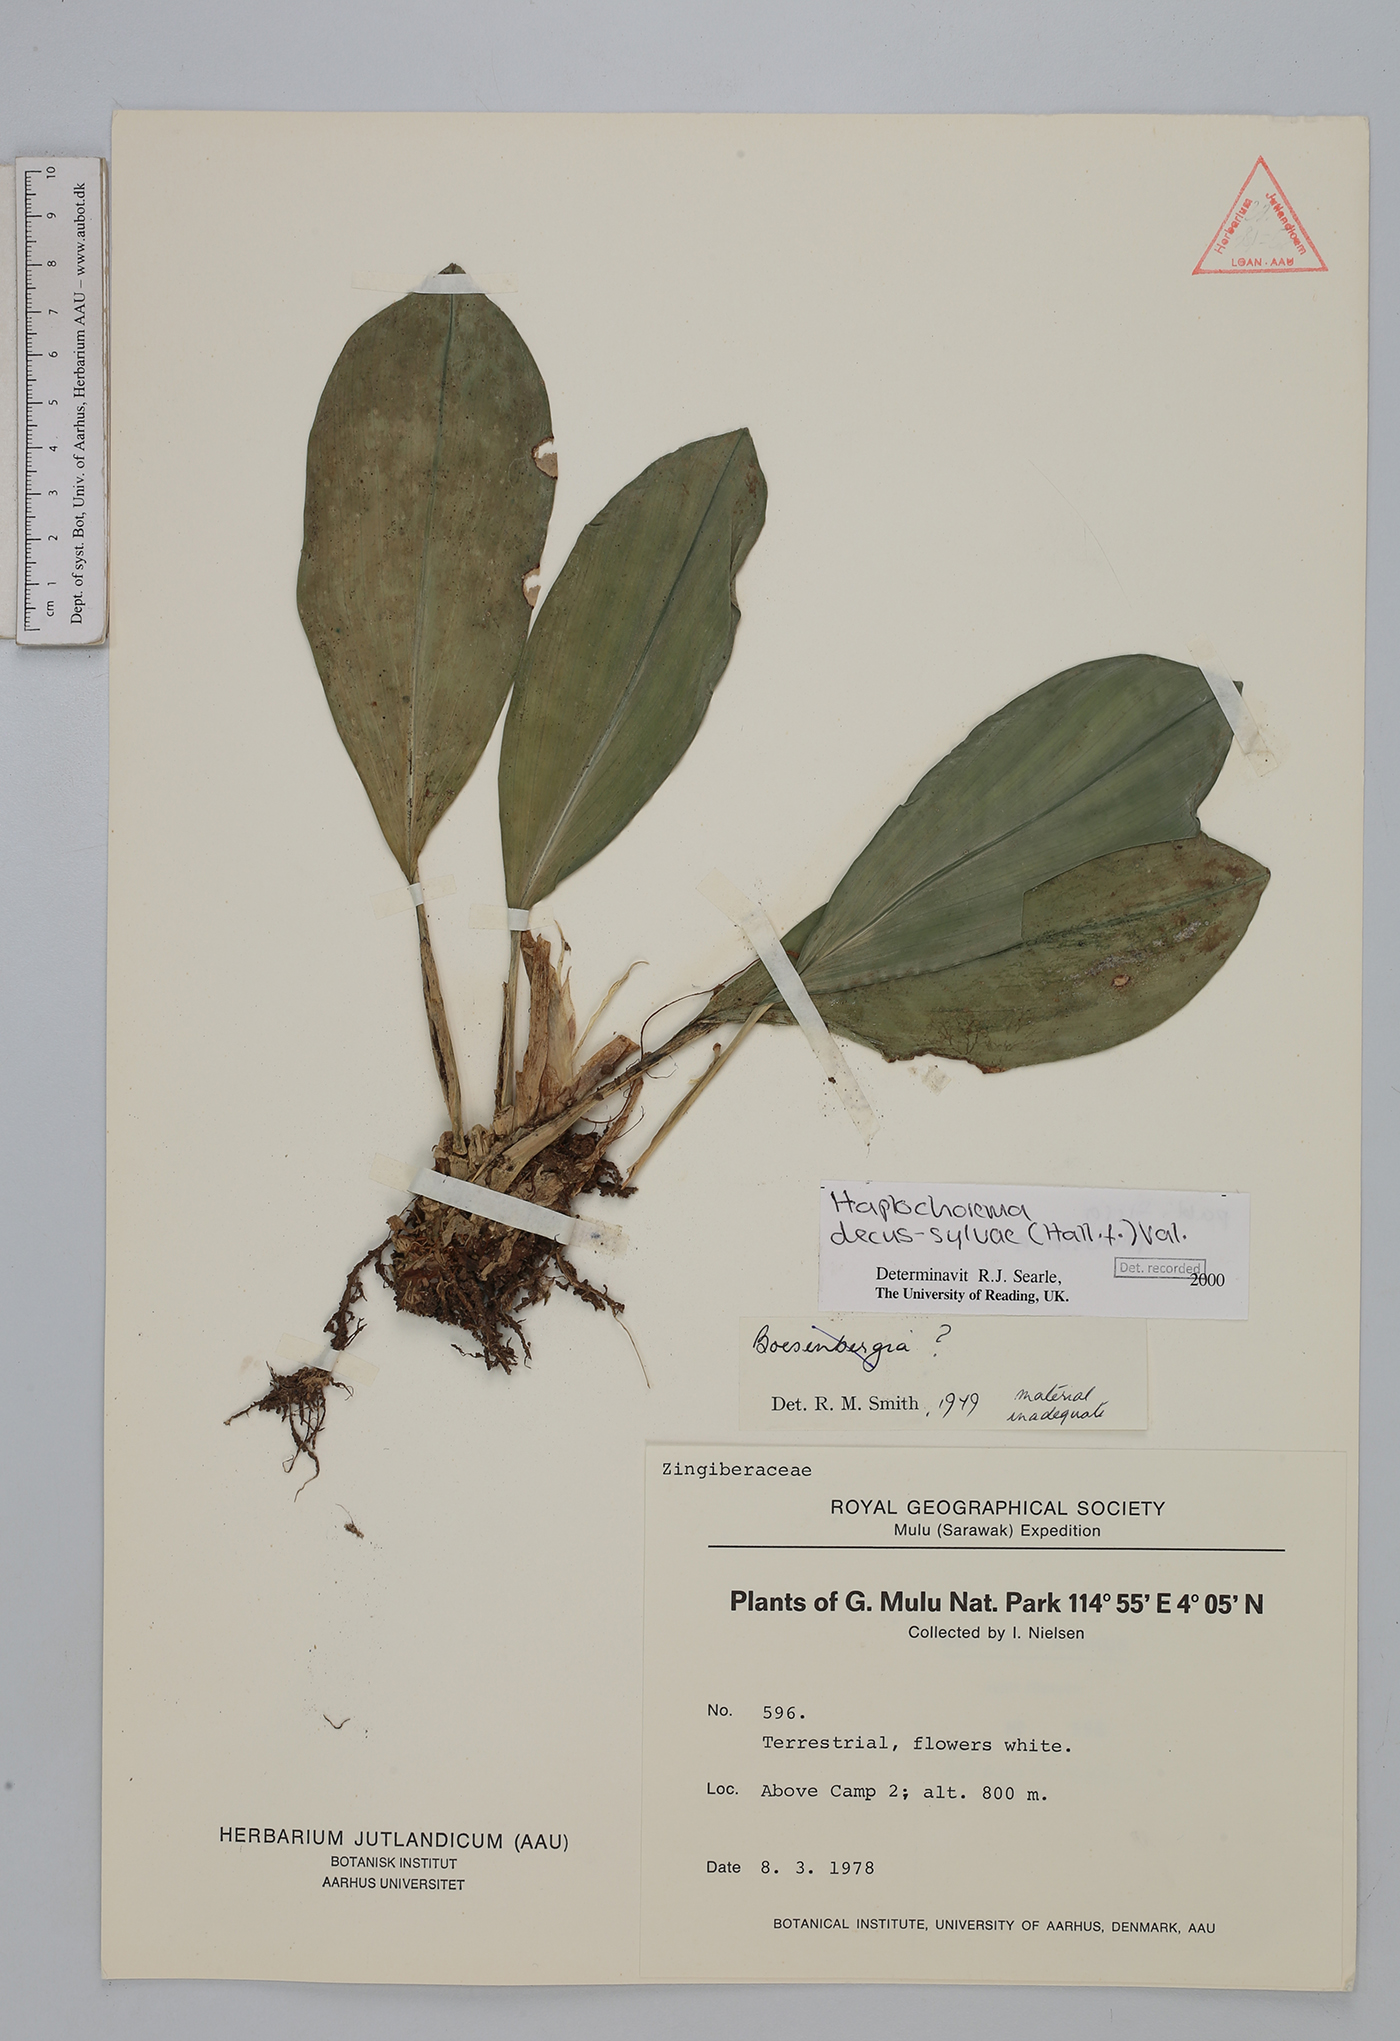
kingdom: Plantae
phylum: Tracheophyta
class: Liliopsida
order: Zingiberales
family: Zingiberaceae
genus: Boesenbergia
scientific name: Boesenbergia decus-silvae
